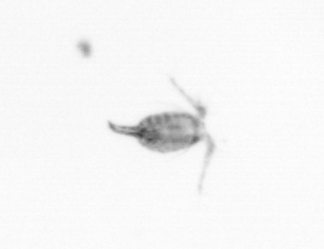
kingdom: Animalia
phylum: Arthropoda
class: Copepoda
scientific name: Copepoda
